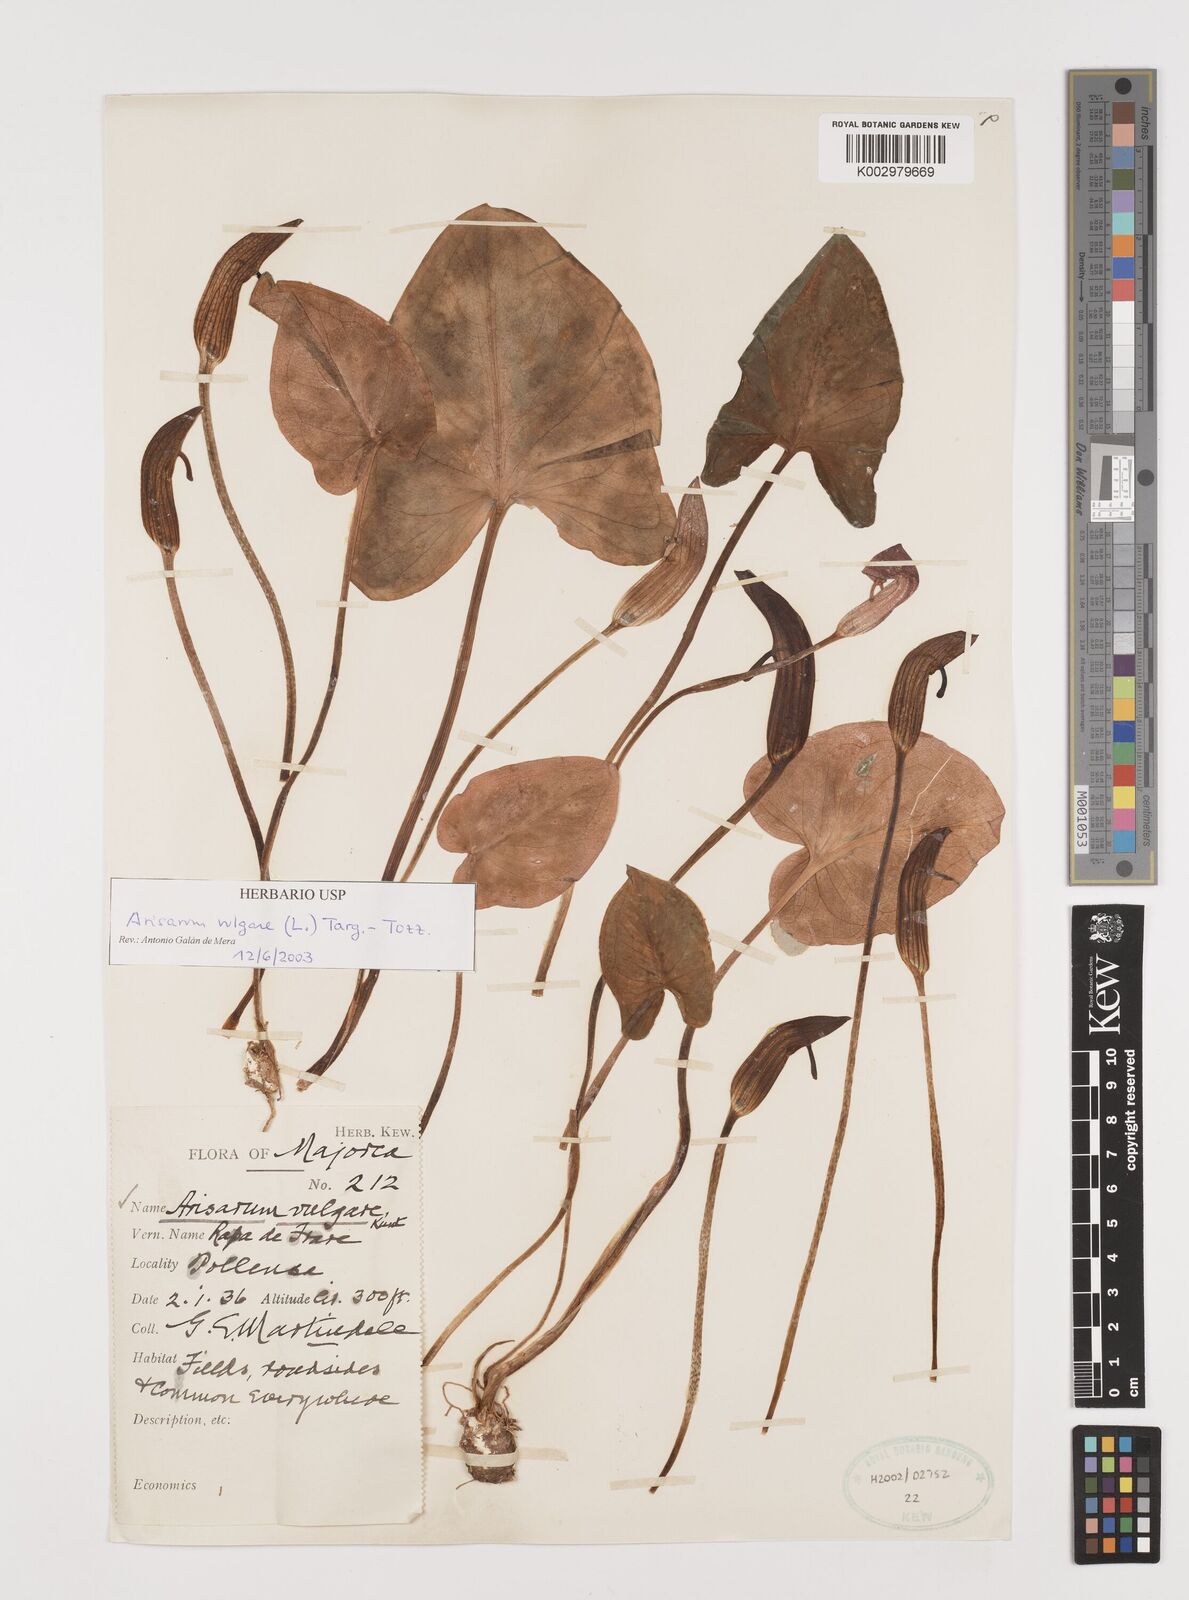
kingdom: Plantae
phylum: Tracheophyta
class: Liliopsida
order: Alismatales
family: Araceae
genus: Arisarum
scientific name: Arisarum vulgare
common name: Common arisarum
